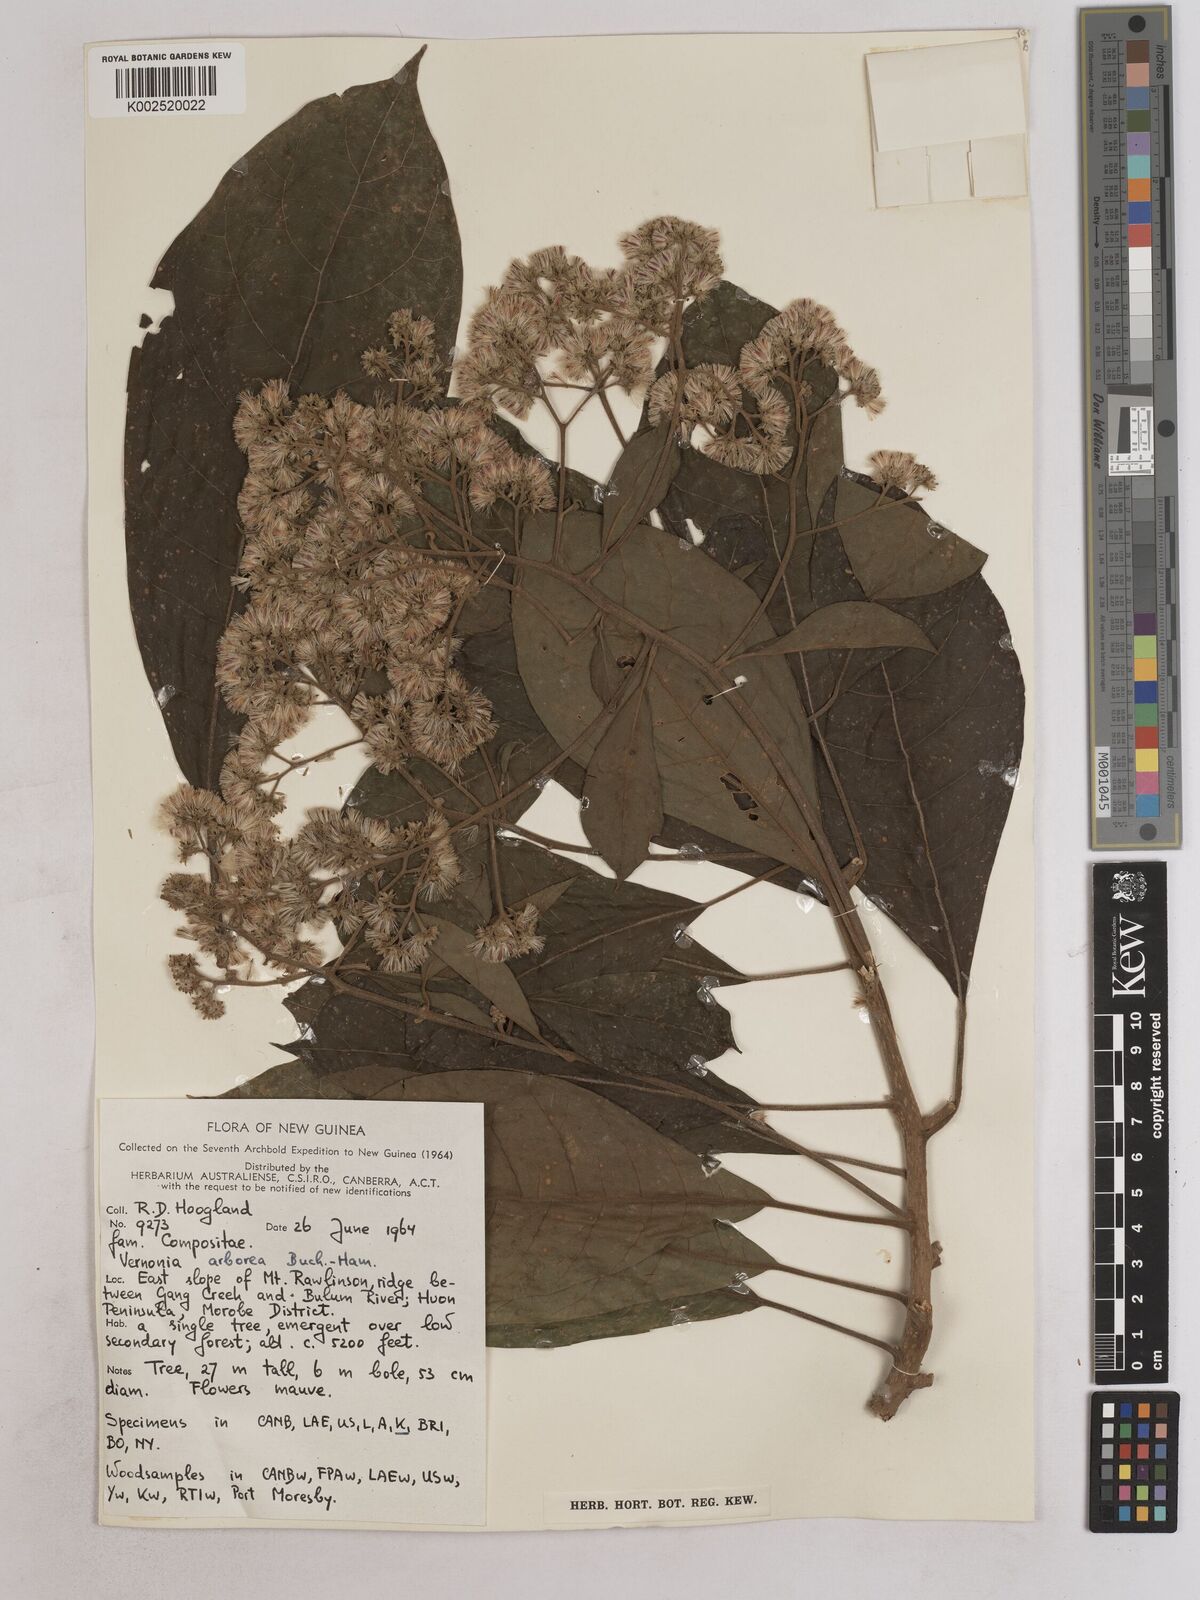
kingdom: Plantae
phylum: Tracheophyta
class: Magnoliopsida
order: Asterales
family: Asteraceae
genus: Strobocalyx
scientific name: Strobocalyx arborea
